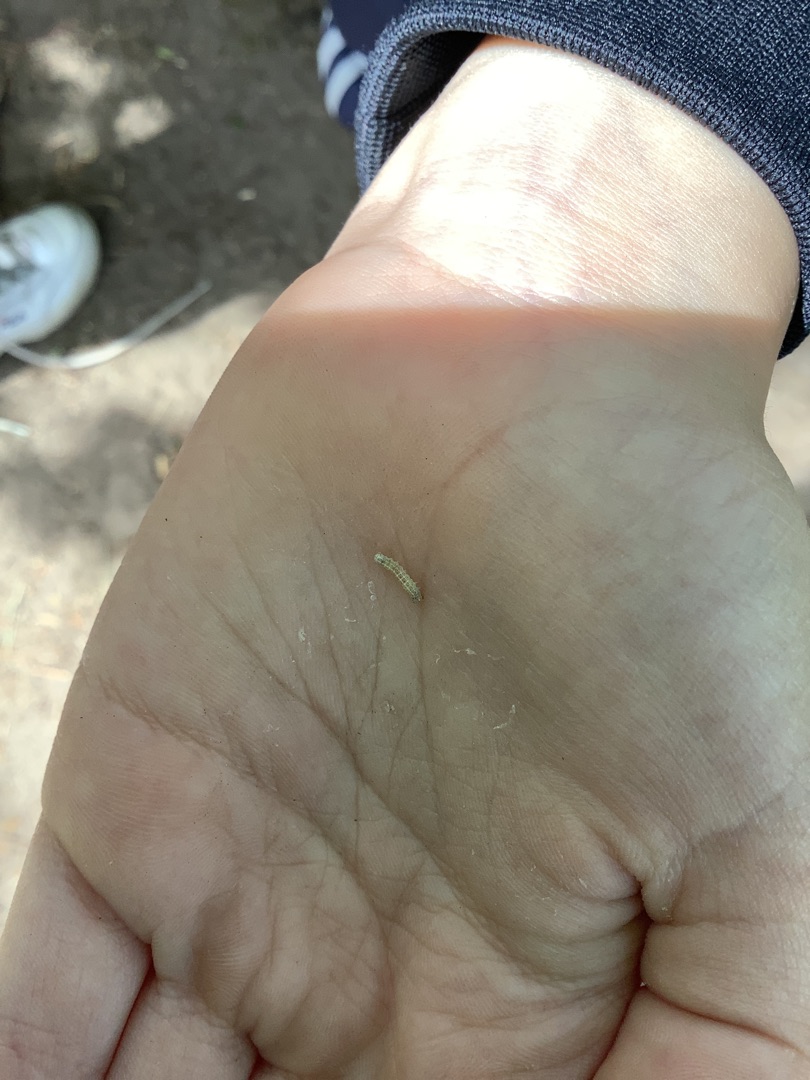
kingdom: Animalia
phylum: Arthropoda
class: Insecta
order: Lepidoptera
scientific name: Lepidoptera
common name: Sommerfugle
